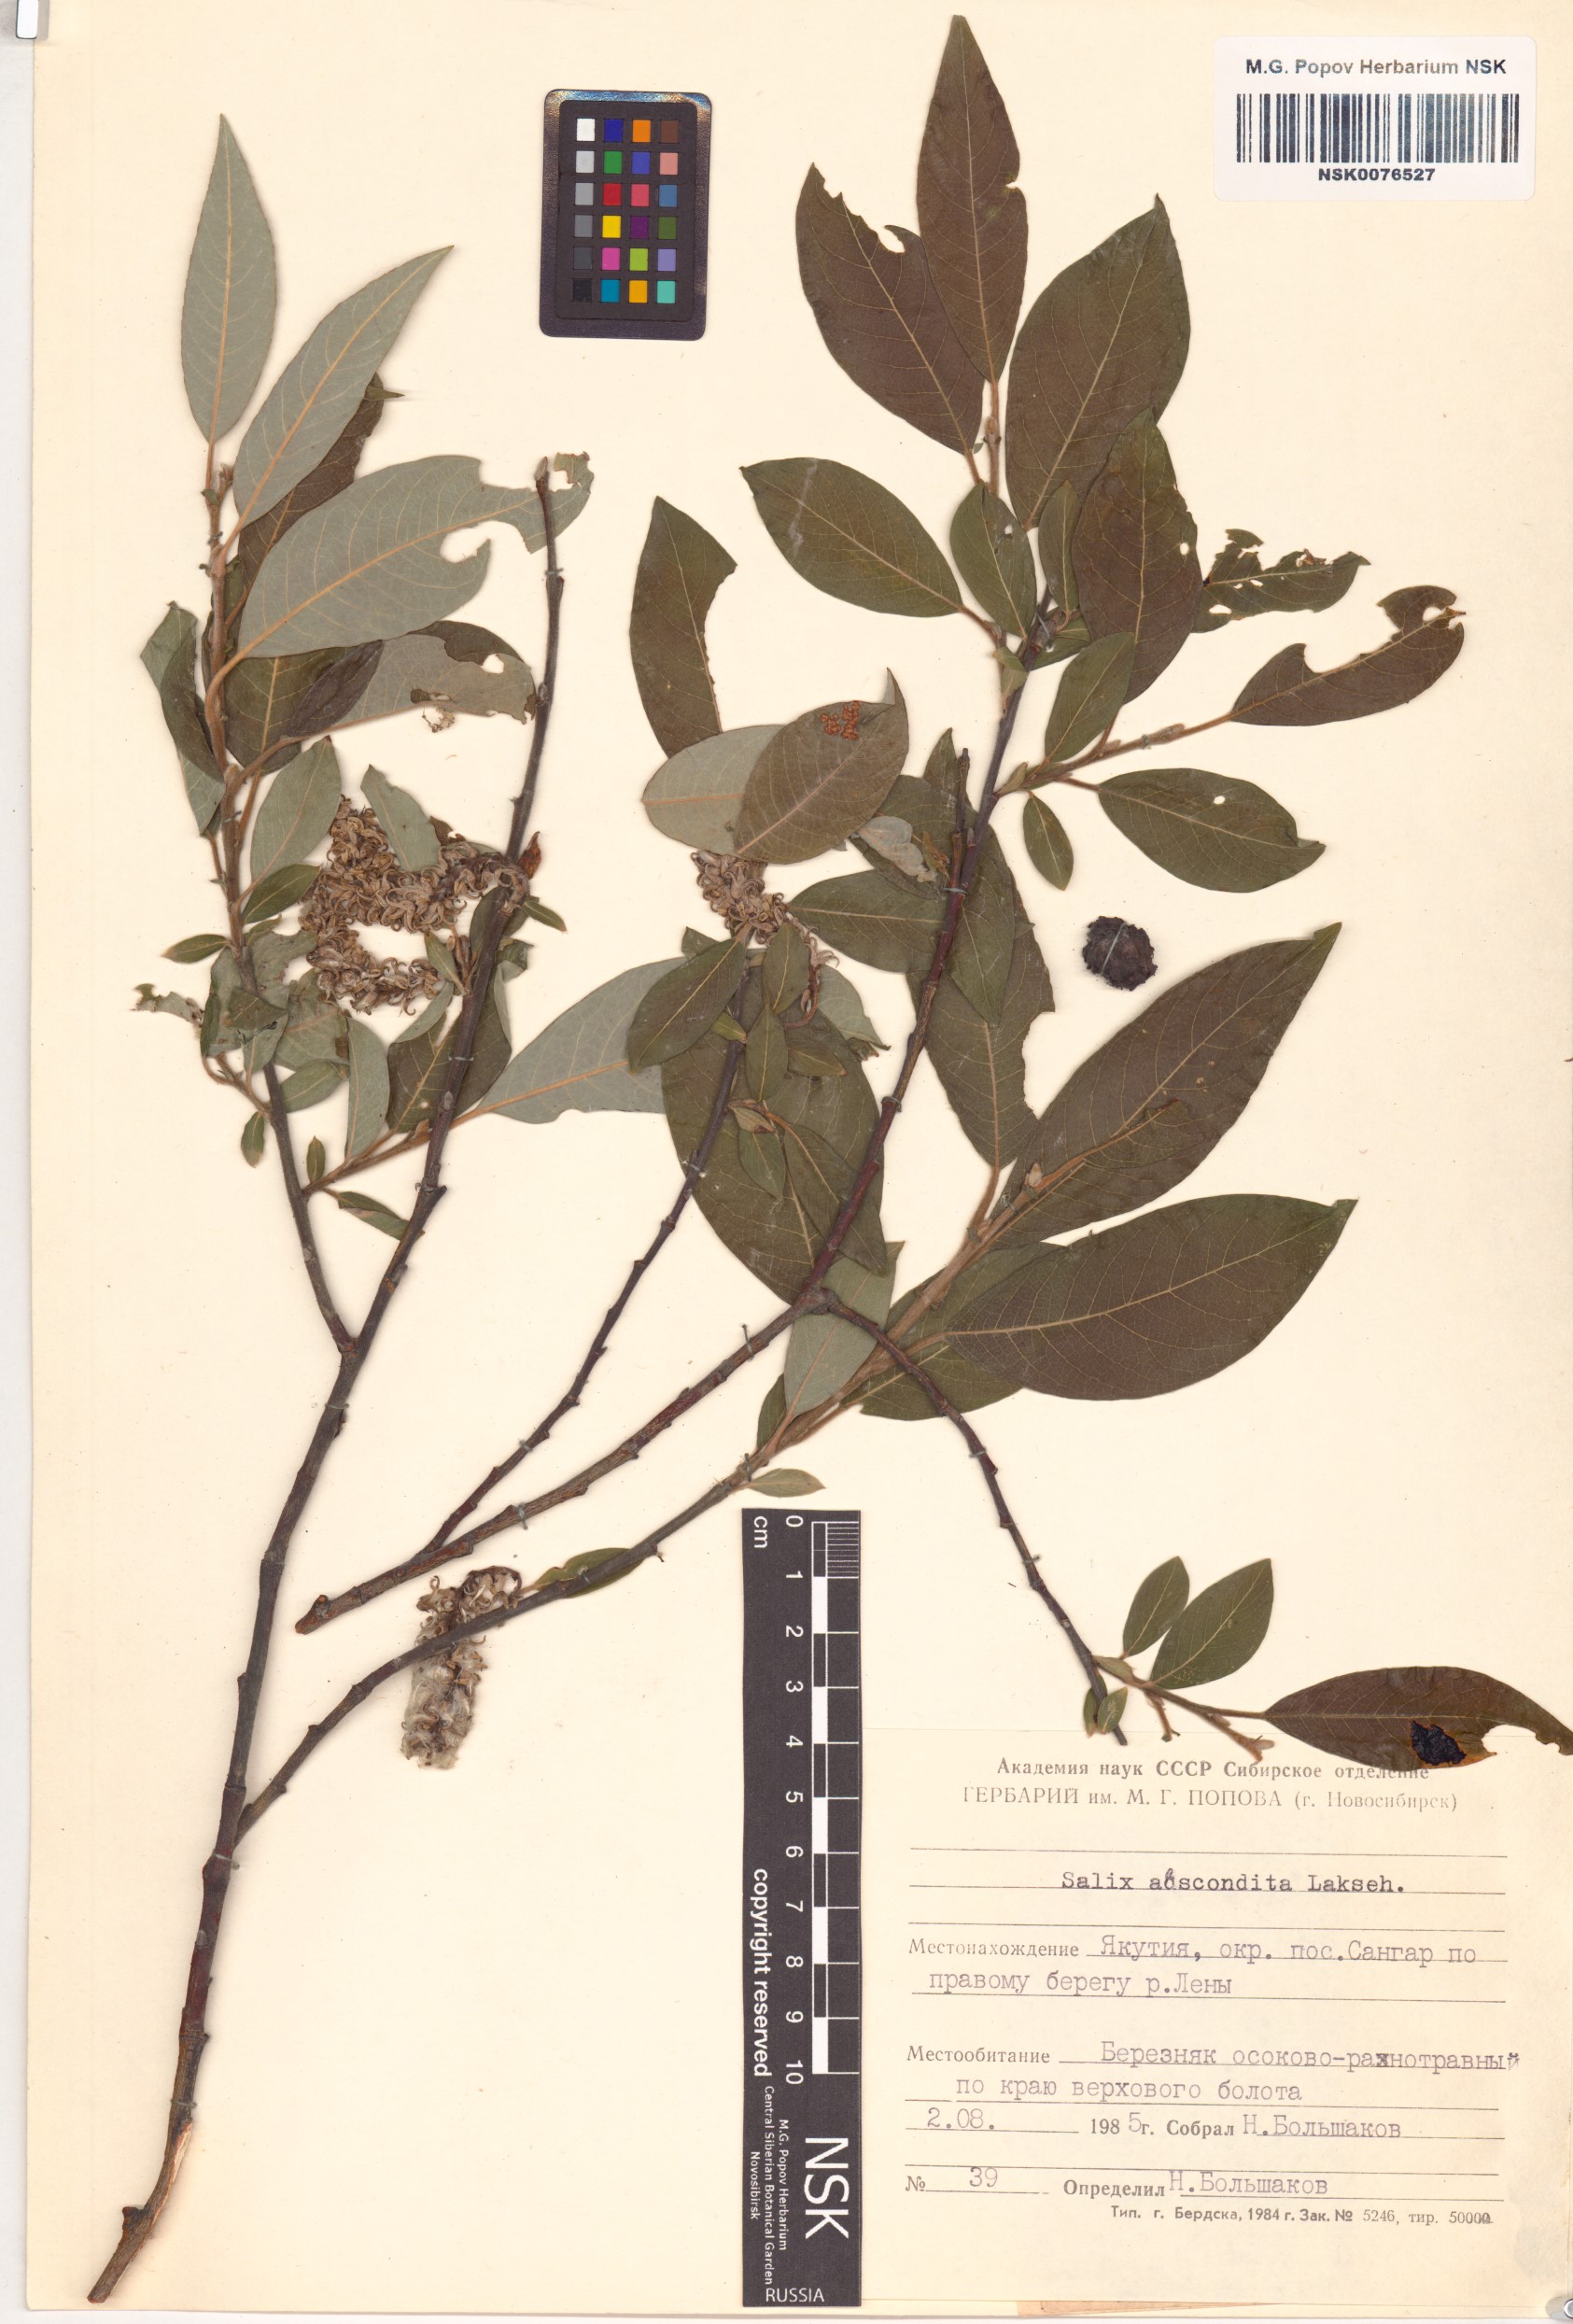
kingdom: Plantae
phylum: Tracheophyta
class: Magnoliopsida
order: Malpighiales
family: Salicaceae
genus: Salix
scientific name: Salix abscondita
